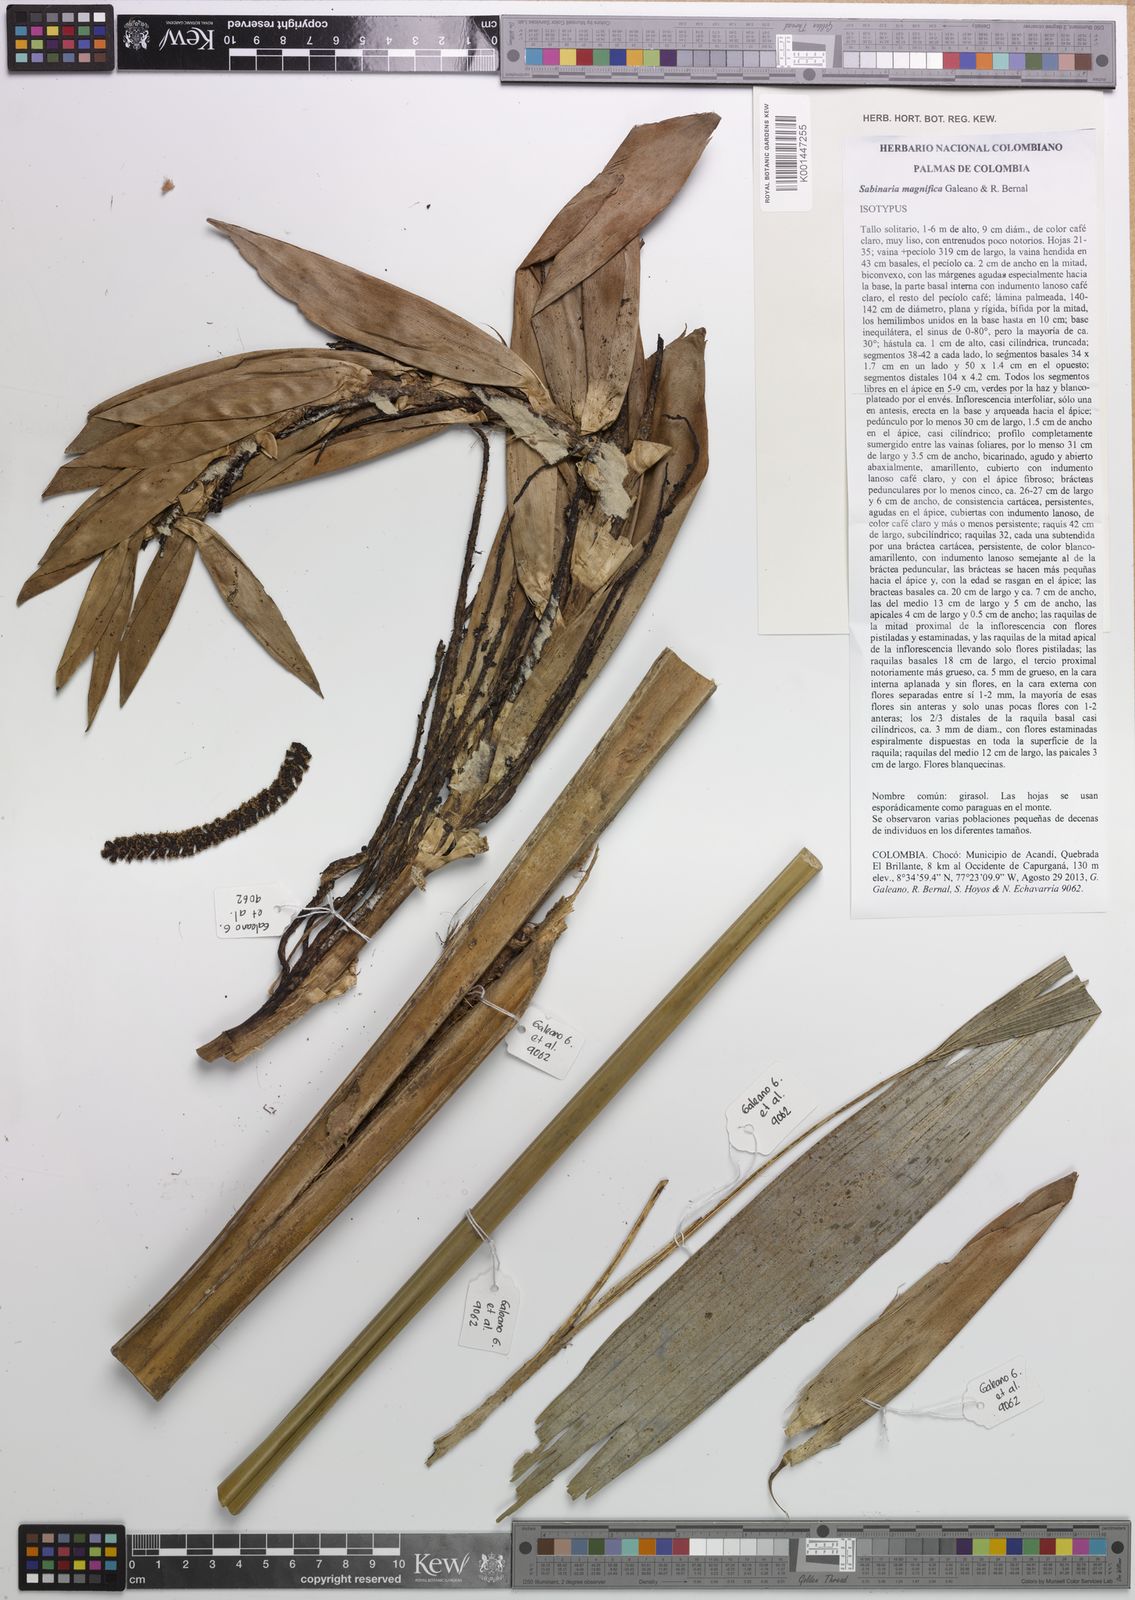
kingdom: Plantae
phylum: Tracheophyta
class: Liliopsida
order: Arecales
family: Arecaceae
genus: Sabinaria
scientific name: Sabinaria magnifica
